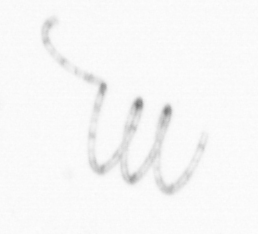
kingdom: Chromista
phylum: Ochrophyta
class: Bacillariophyceae
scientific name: Bacillariophyceae
